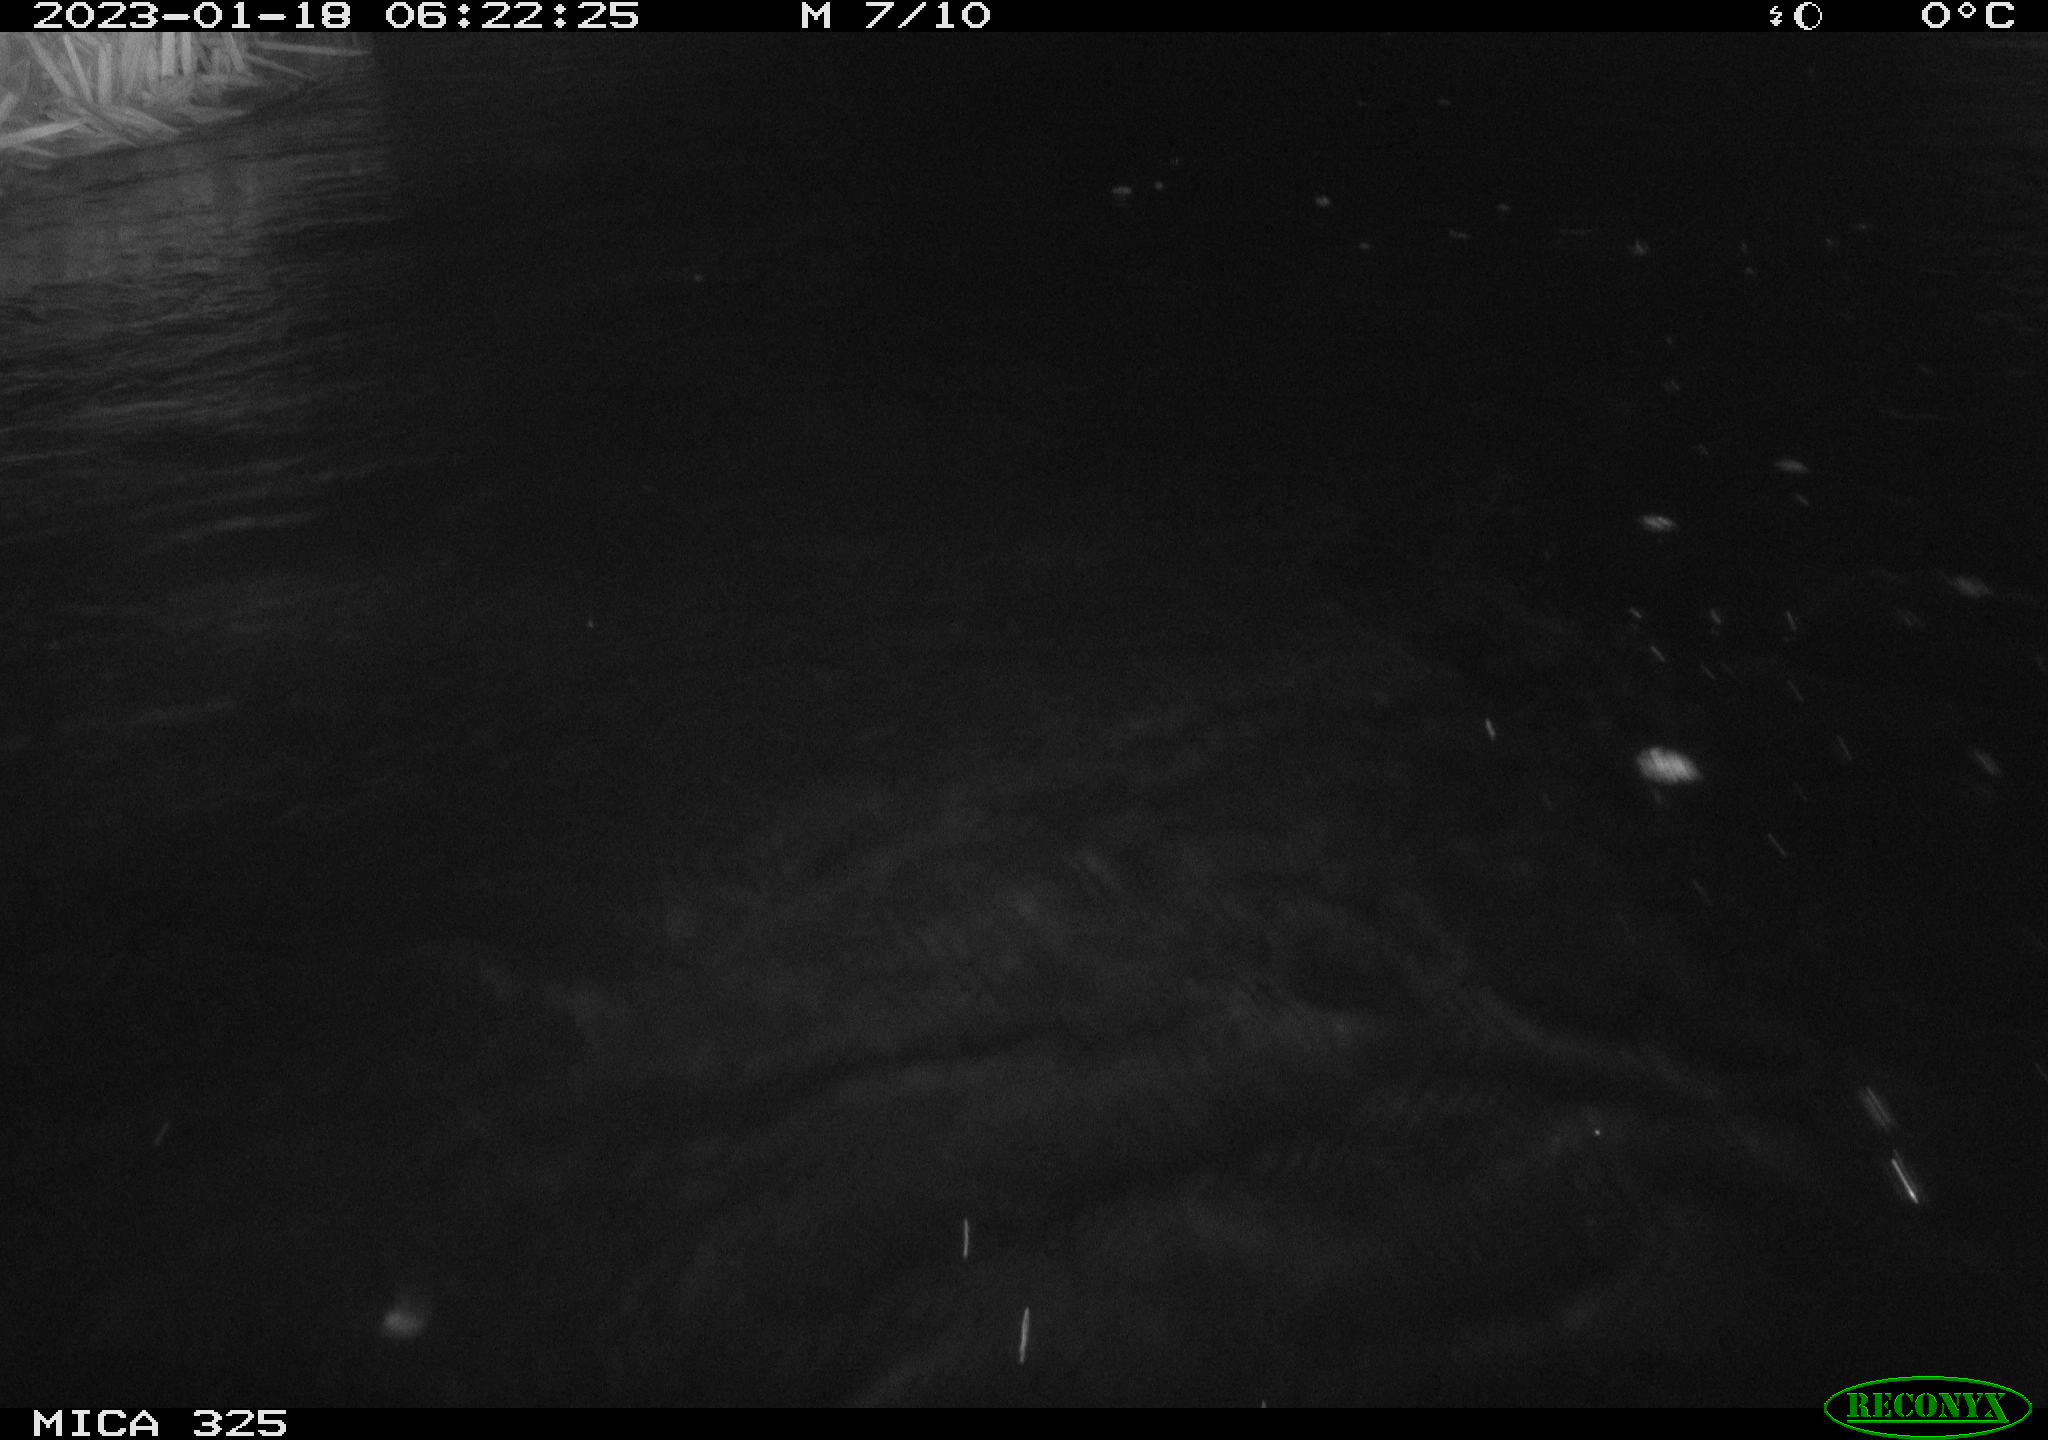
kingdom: Animalia
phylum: Chordata
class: Mammalia
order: Rodentia
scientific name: Rodentia
